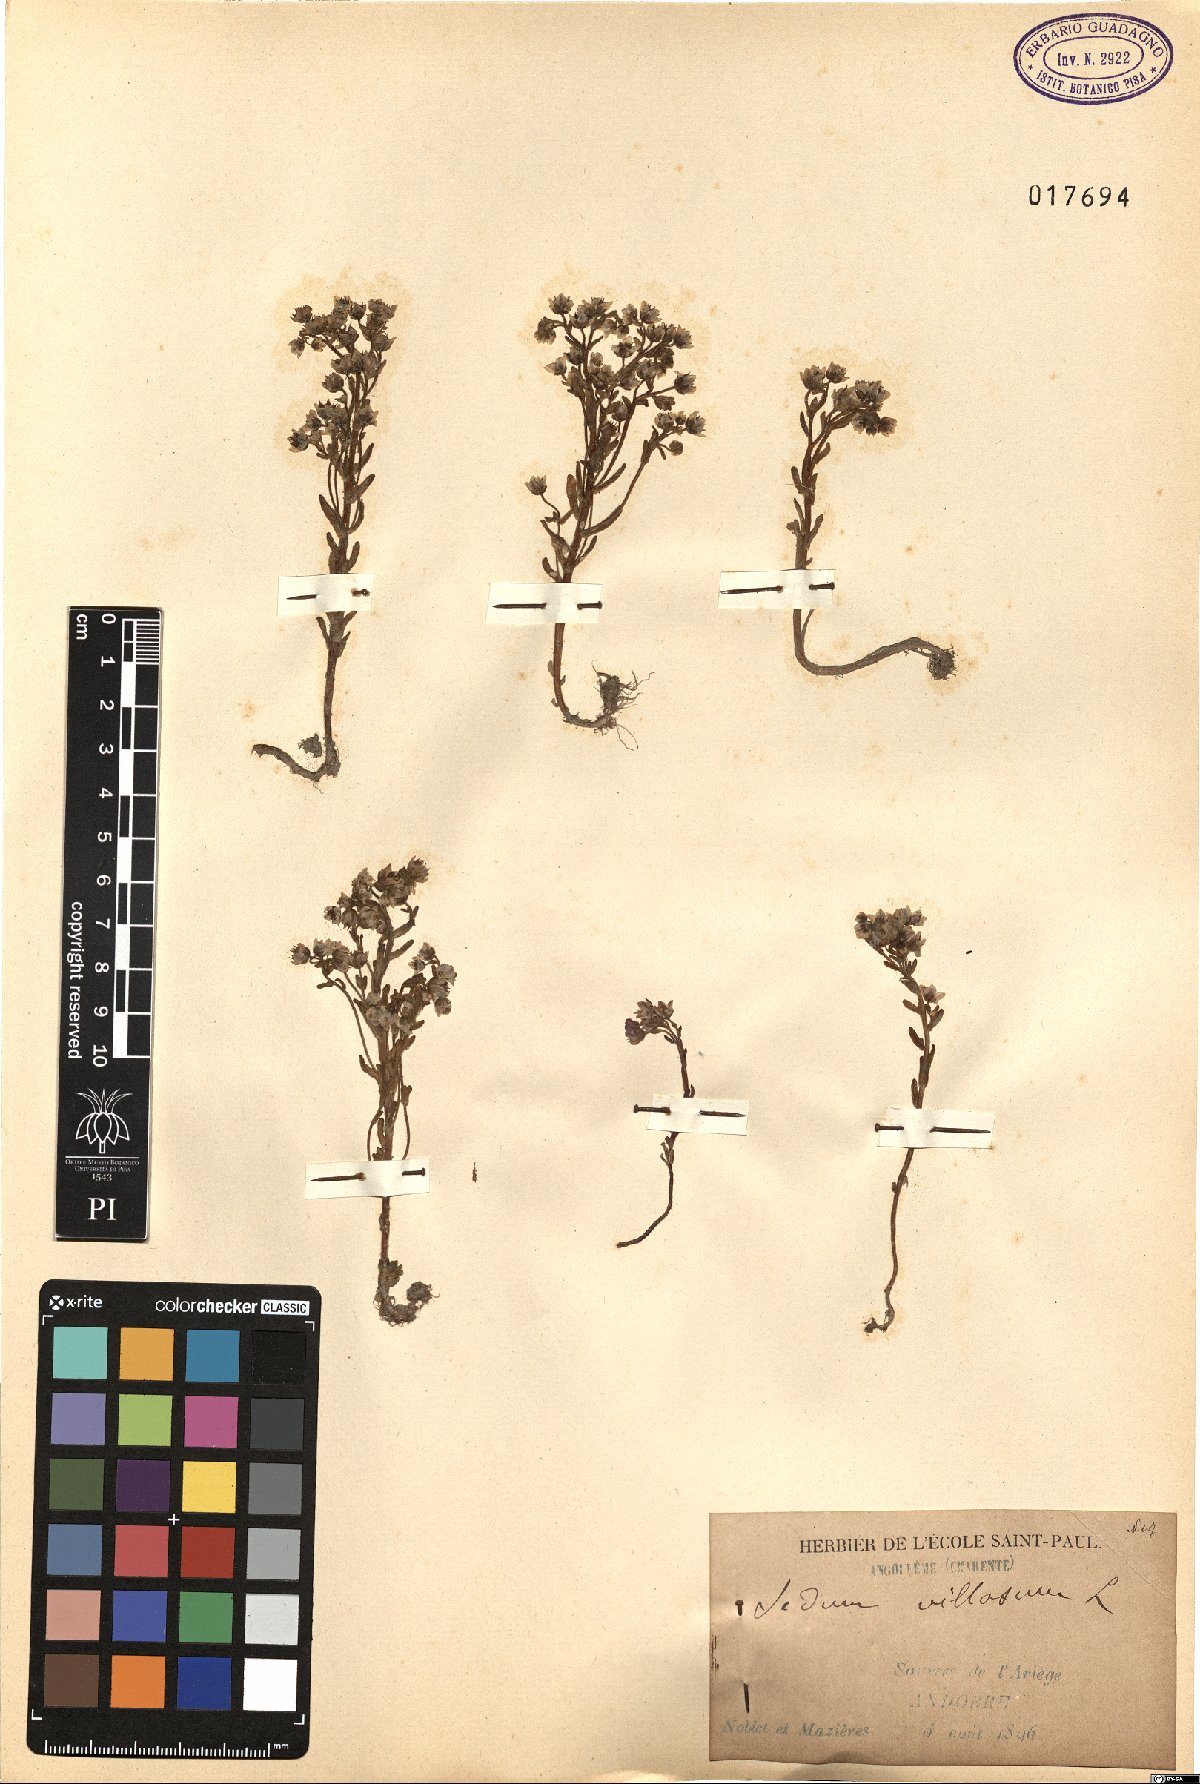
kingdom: Plantae
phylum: Tracheophyta
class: Magnoliopsida
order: Saxifragales
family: Crassulaceae
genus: Sedum
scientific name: Sedum villosum
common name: Hairy stonecrop
